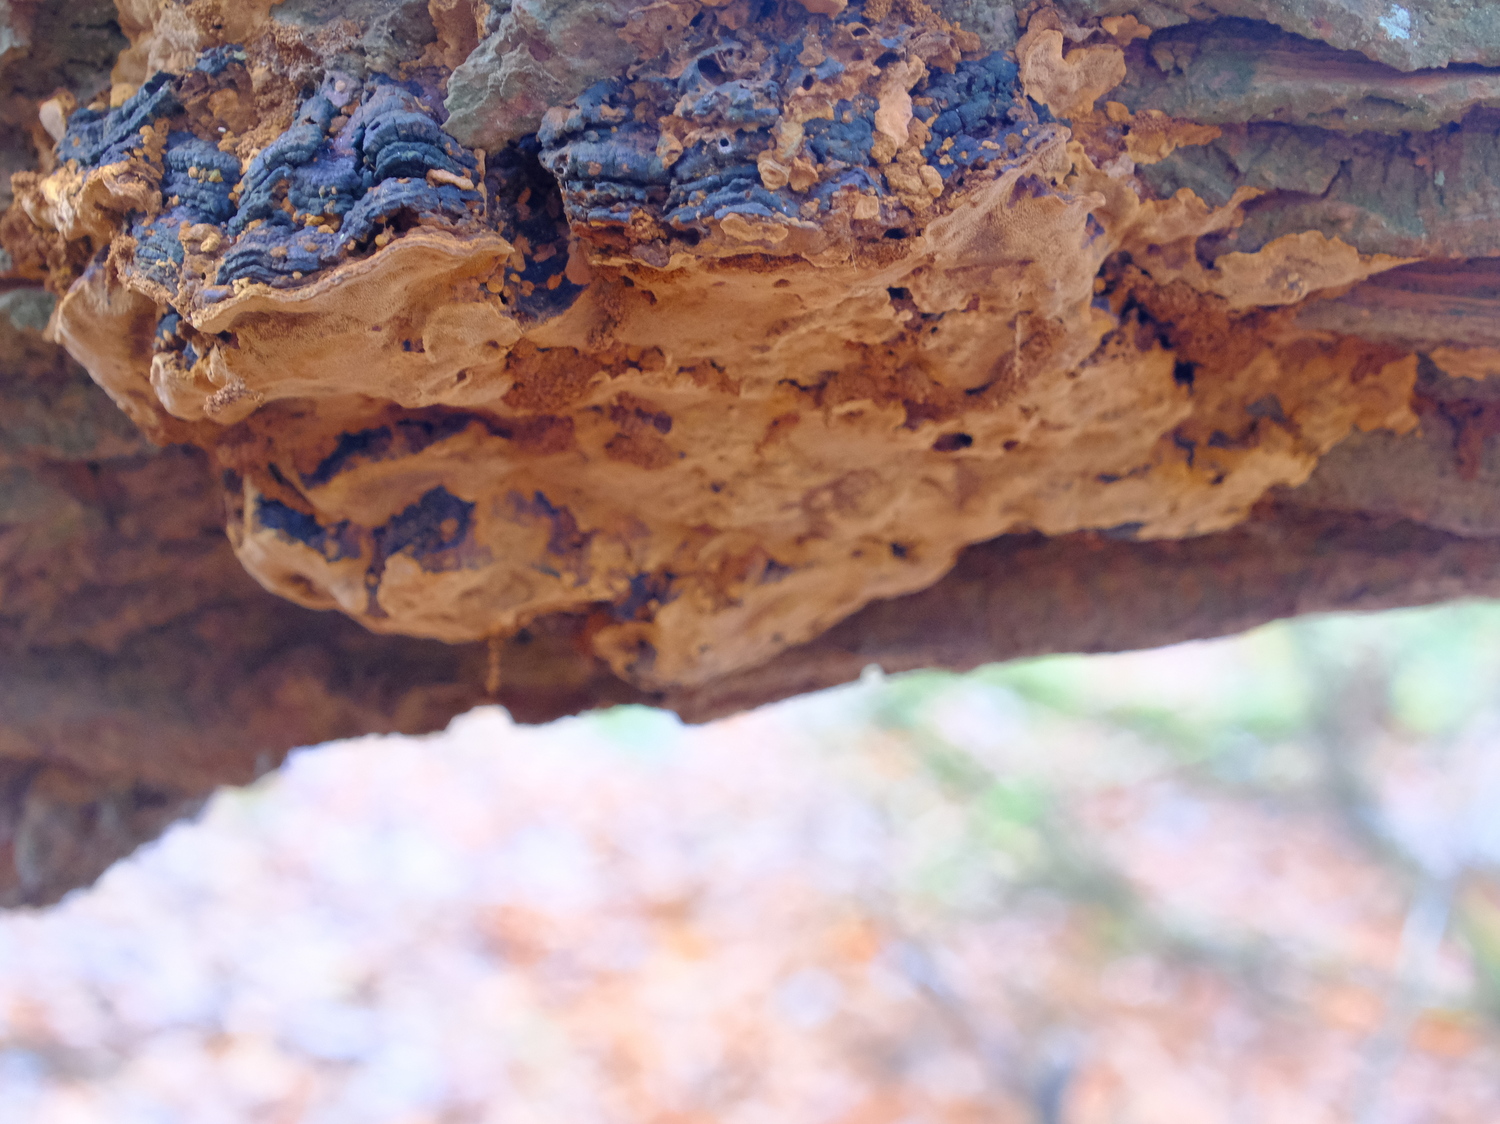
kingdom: Fungi
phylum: Basidiomycota
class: Agaricomycetes
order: Hymenochaetales
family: Hymenochaetaceae
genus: Phellinopsis
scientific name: Phellinopsis conchata
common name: pile-ildporesvamp
